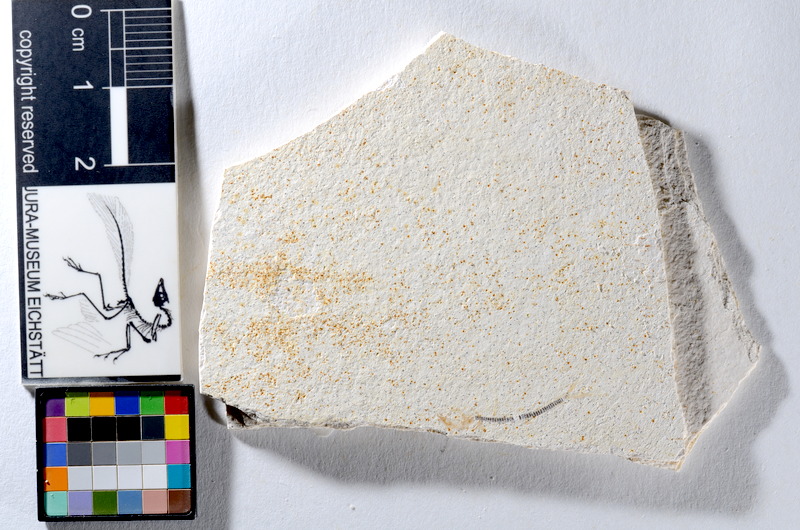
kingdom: Animalia
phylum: Chordata
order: Salmoniformes
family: Orthogonikleithridae
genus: Orthogonikleithrus
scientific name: Orthogonikleithrus hoelli
